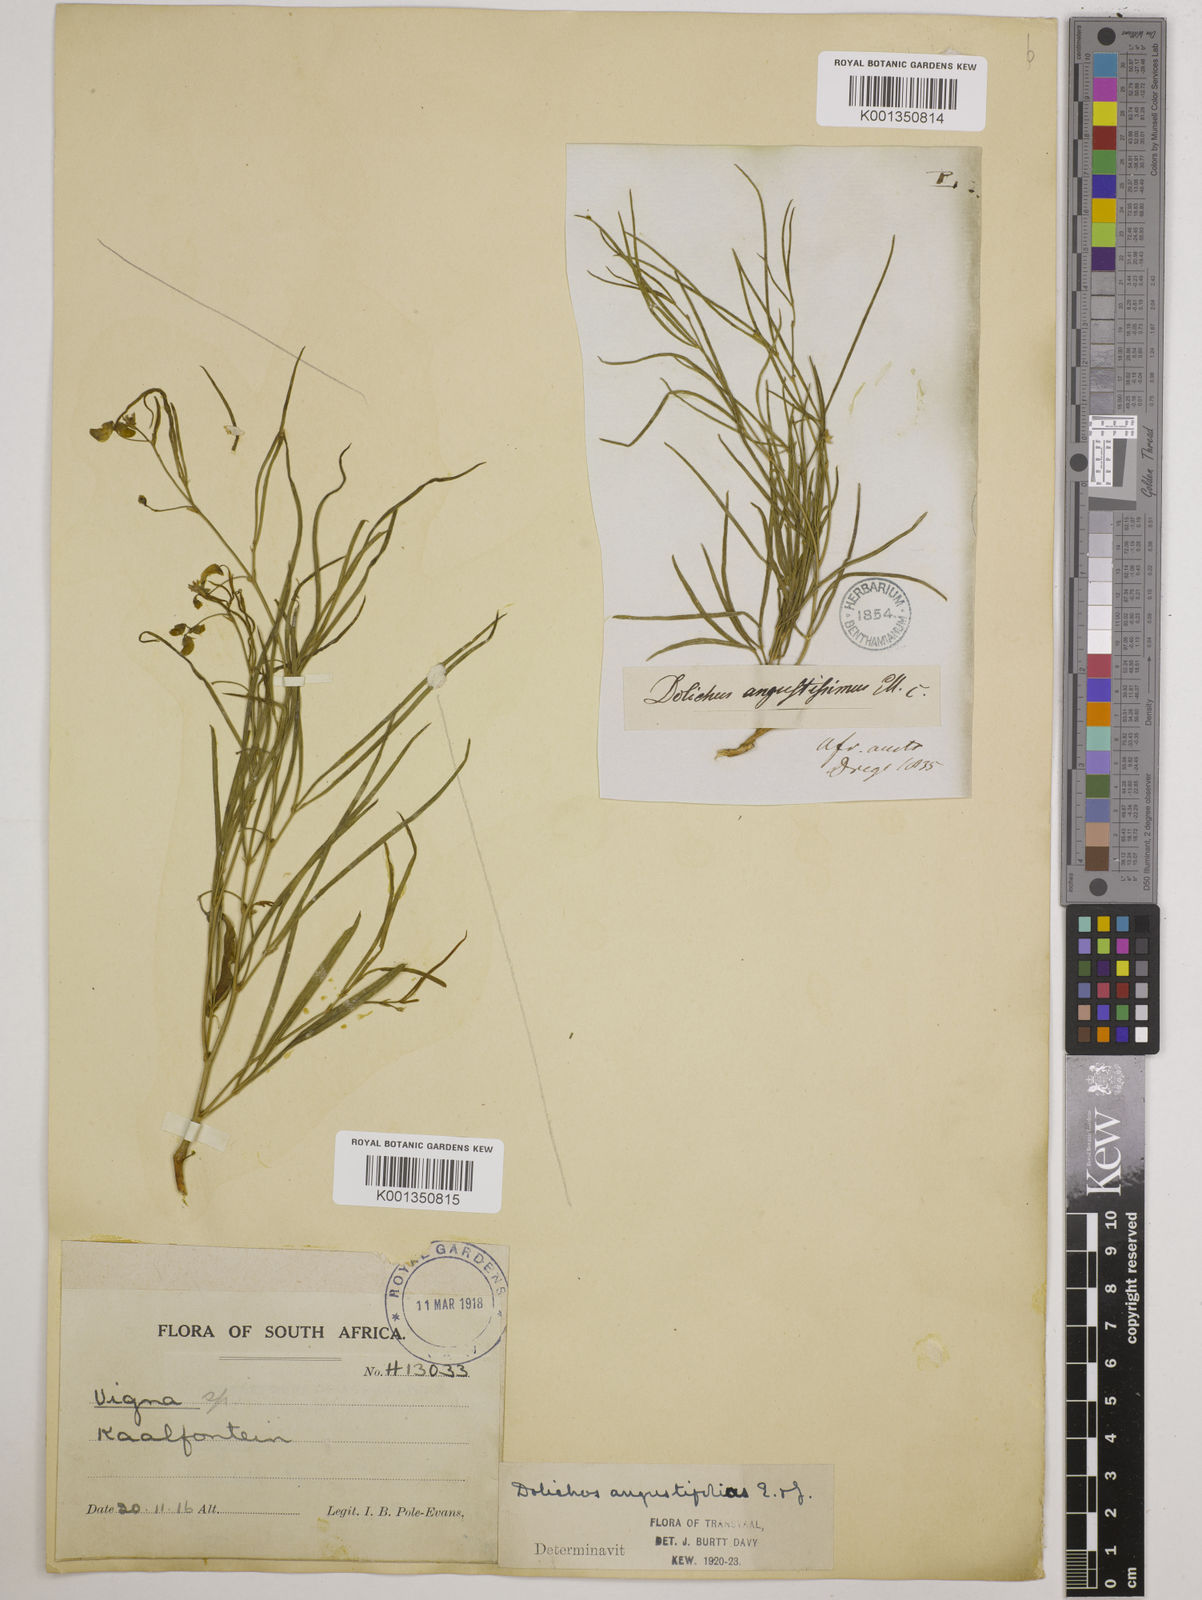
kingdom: Plantae
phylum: Tracheophyta
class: Magnoliopsida
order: Fabales
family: Fabaceae
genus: Dolichos
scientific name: Dolichos
